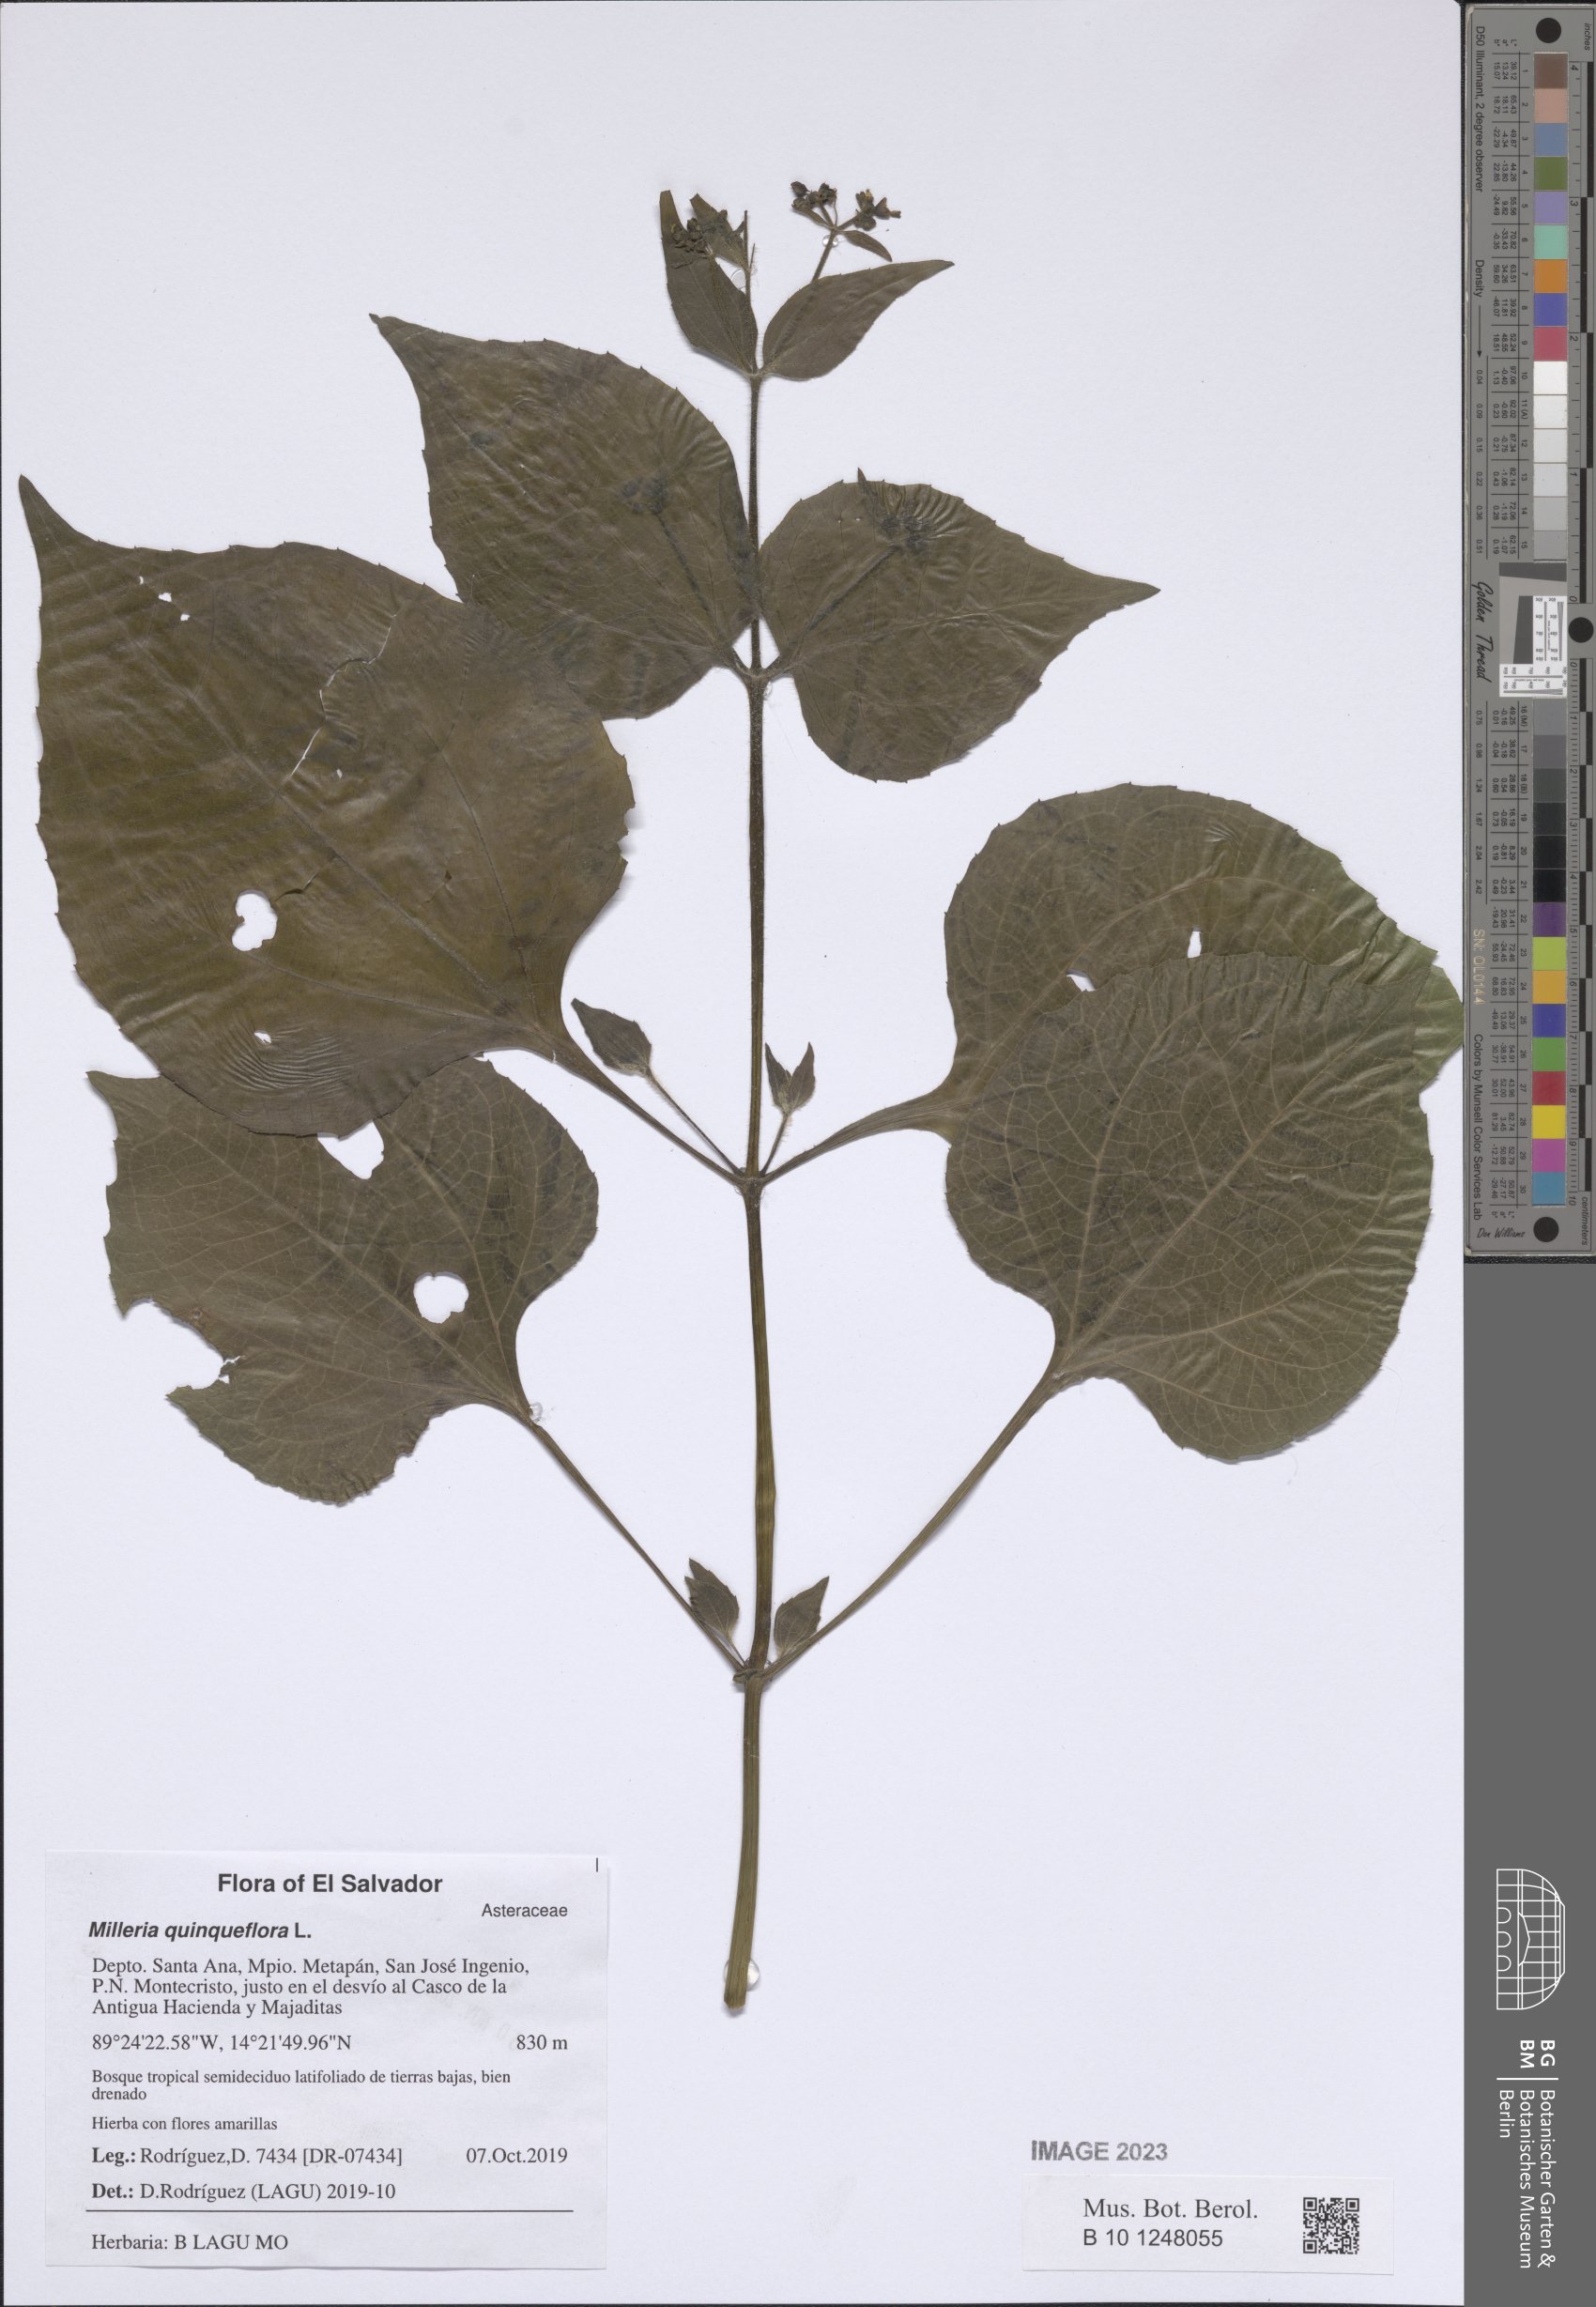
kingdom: Plantae
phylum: Tracheophyta
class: Magnoliopsida
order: Asterales
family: Asteraceae
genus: Milleria
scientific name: Milleria quinqueflora
